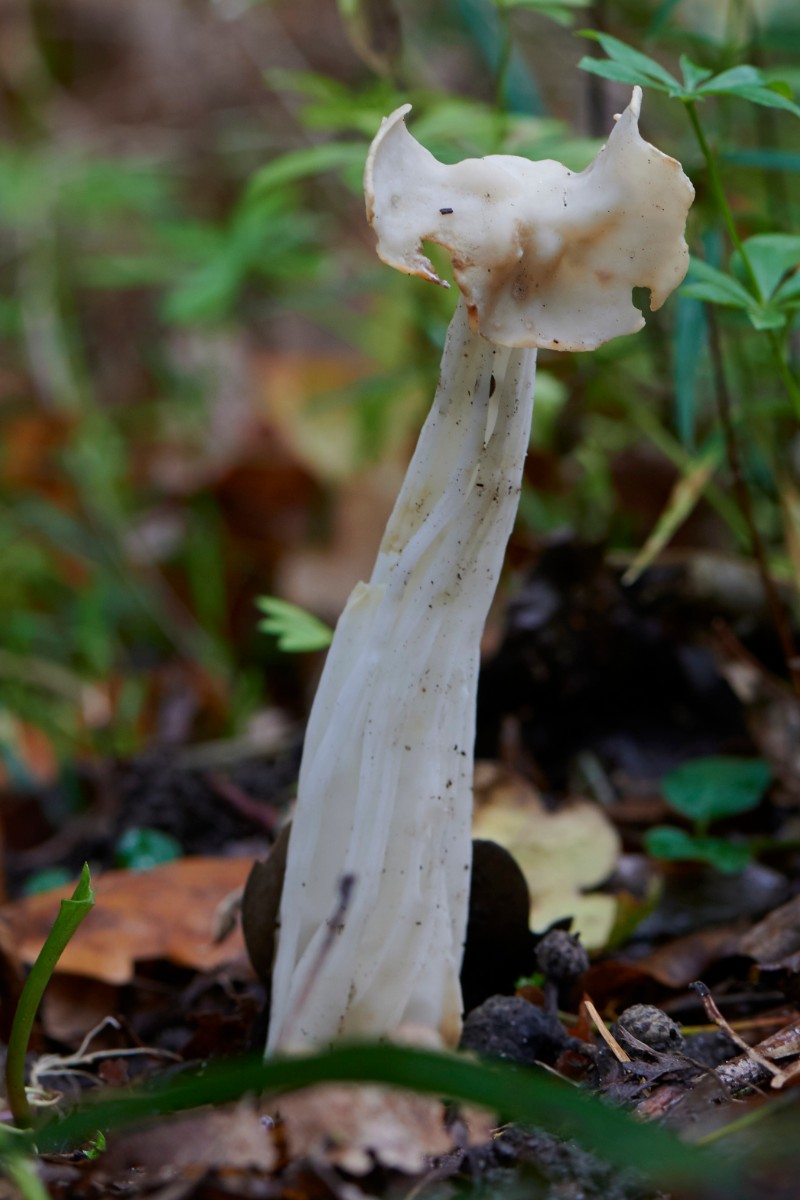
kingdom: Fungi
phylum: Ascomycota
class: Pezizomycetes
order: Pezizales
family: Helvellaceae
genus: Helvella
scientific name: Helvella crispa
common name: kruset foldhat
